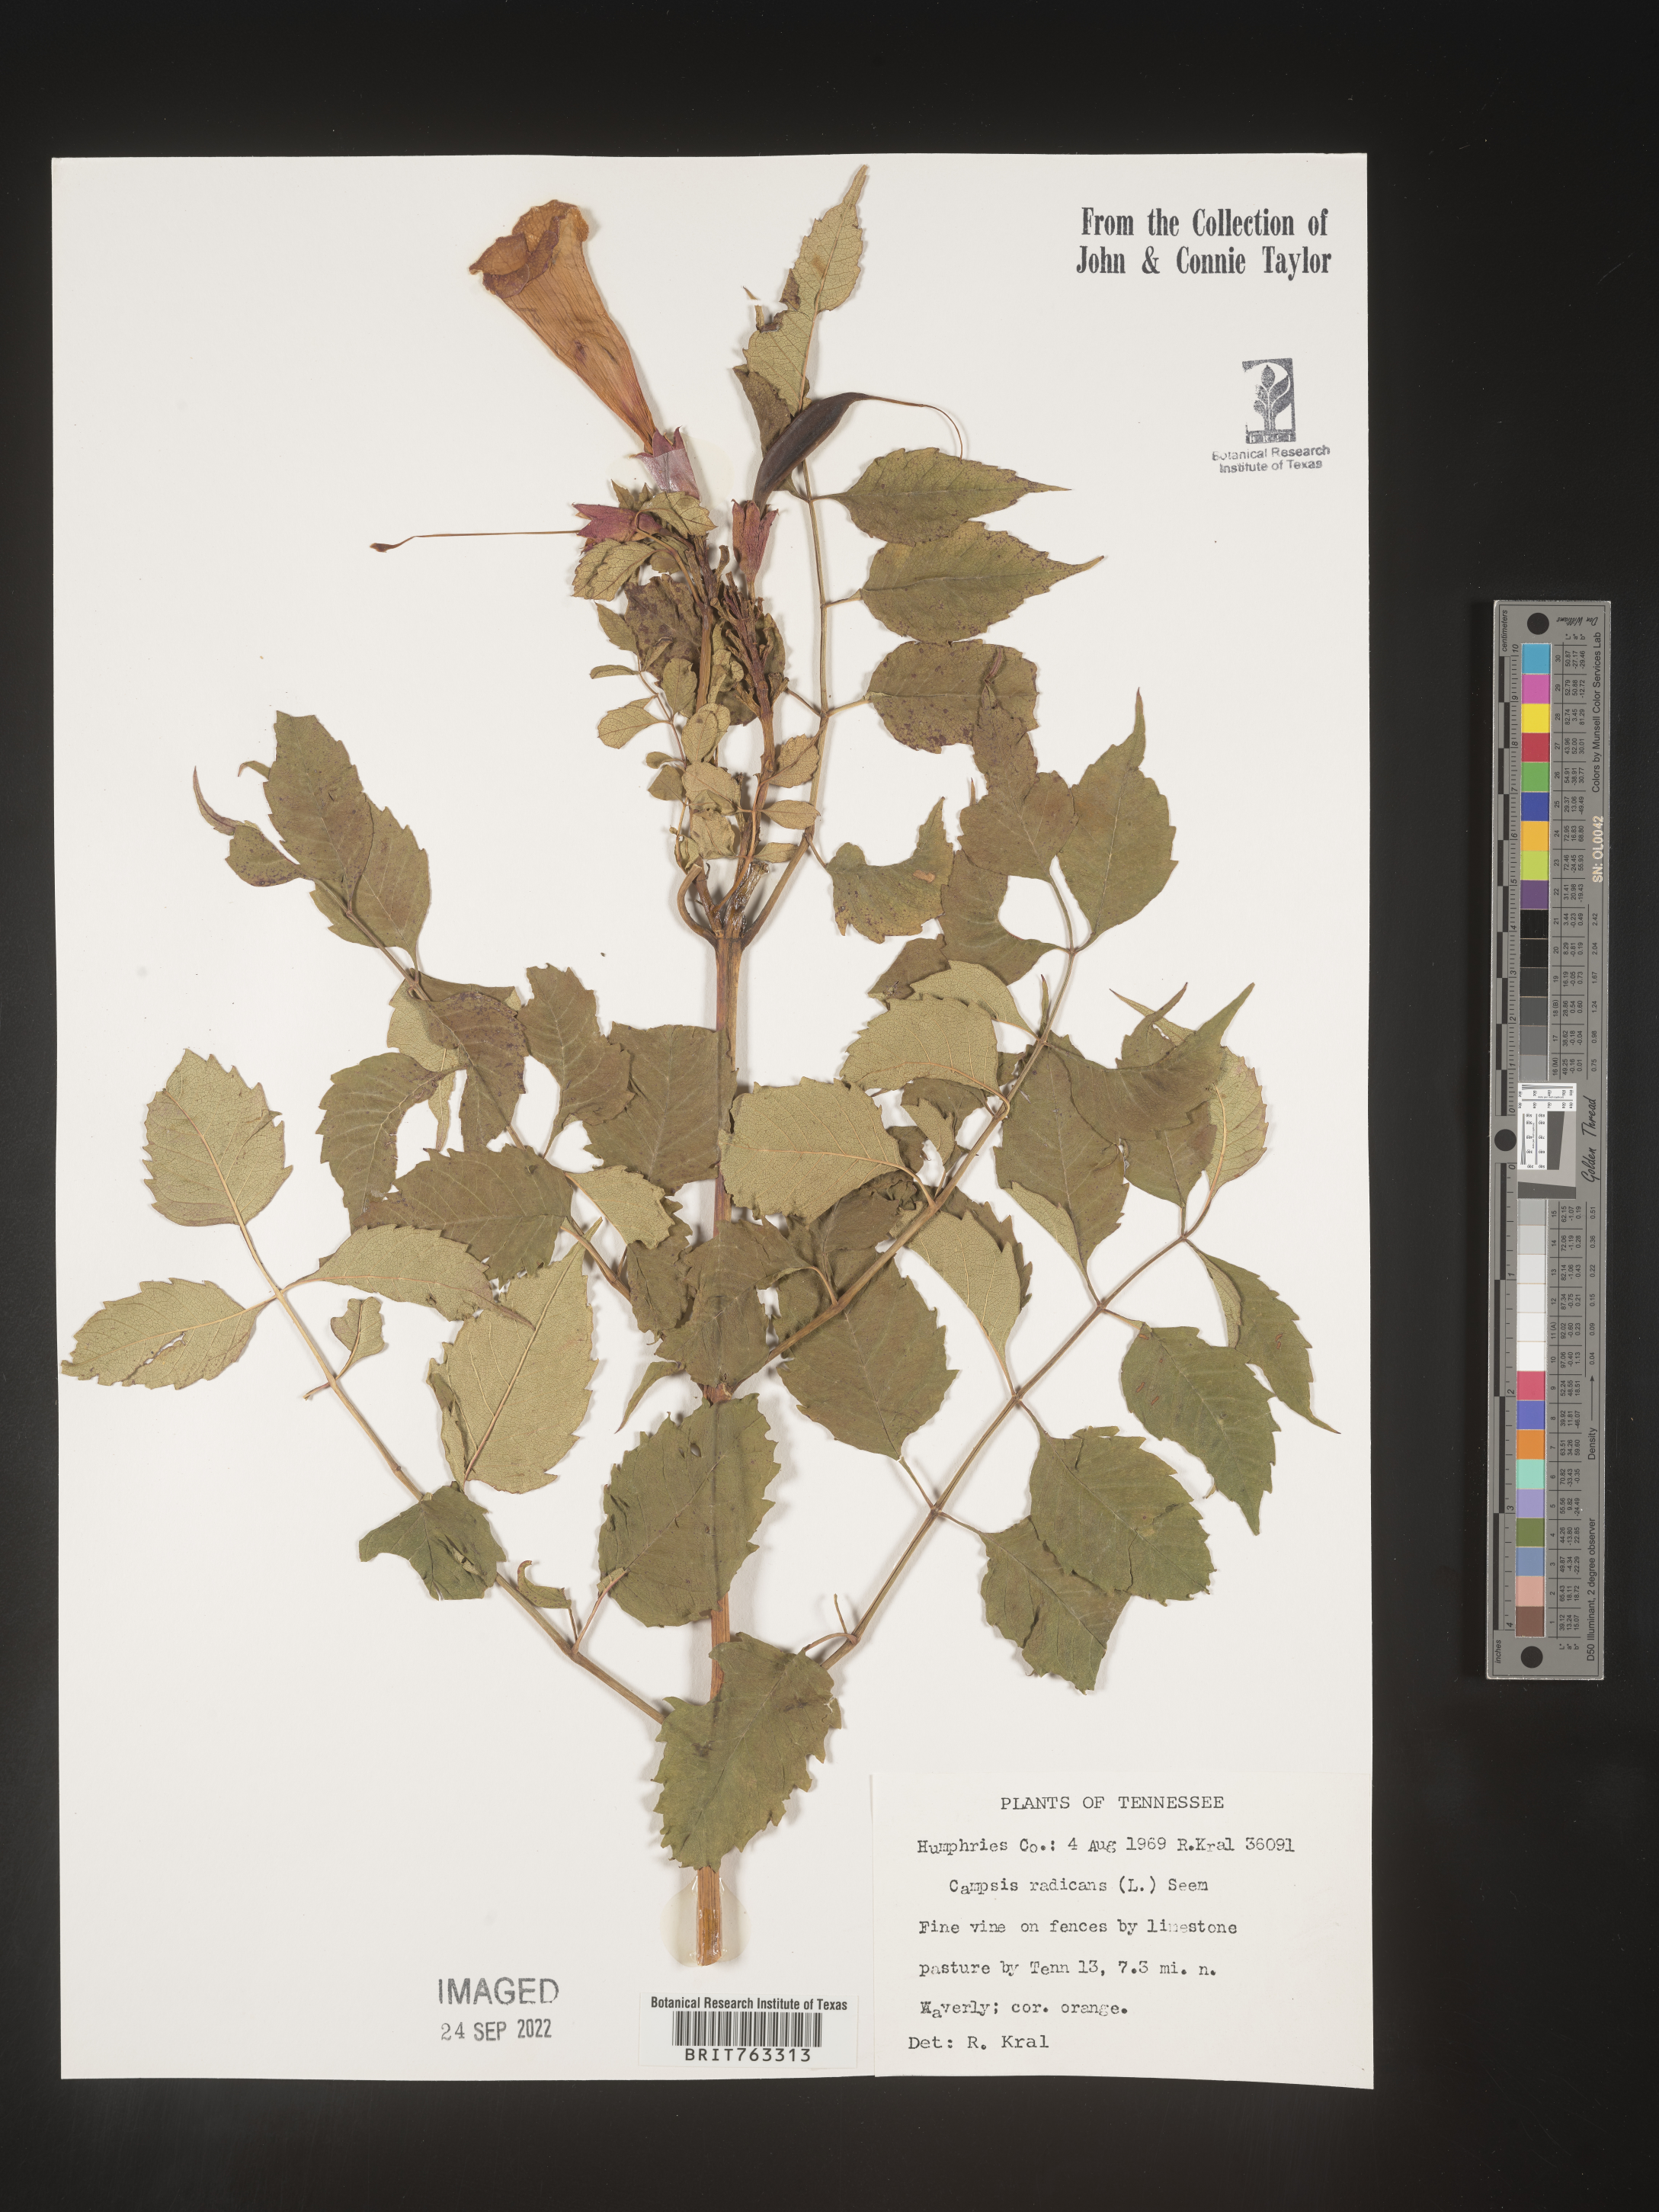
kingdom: Plantae
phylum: Tracheophyta
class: Magnoliopsida
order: Lamiales
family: Bignoniaceae
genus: Campsis
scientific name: Campsis radicans
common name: Trumpet-creeper
